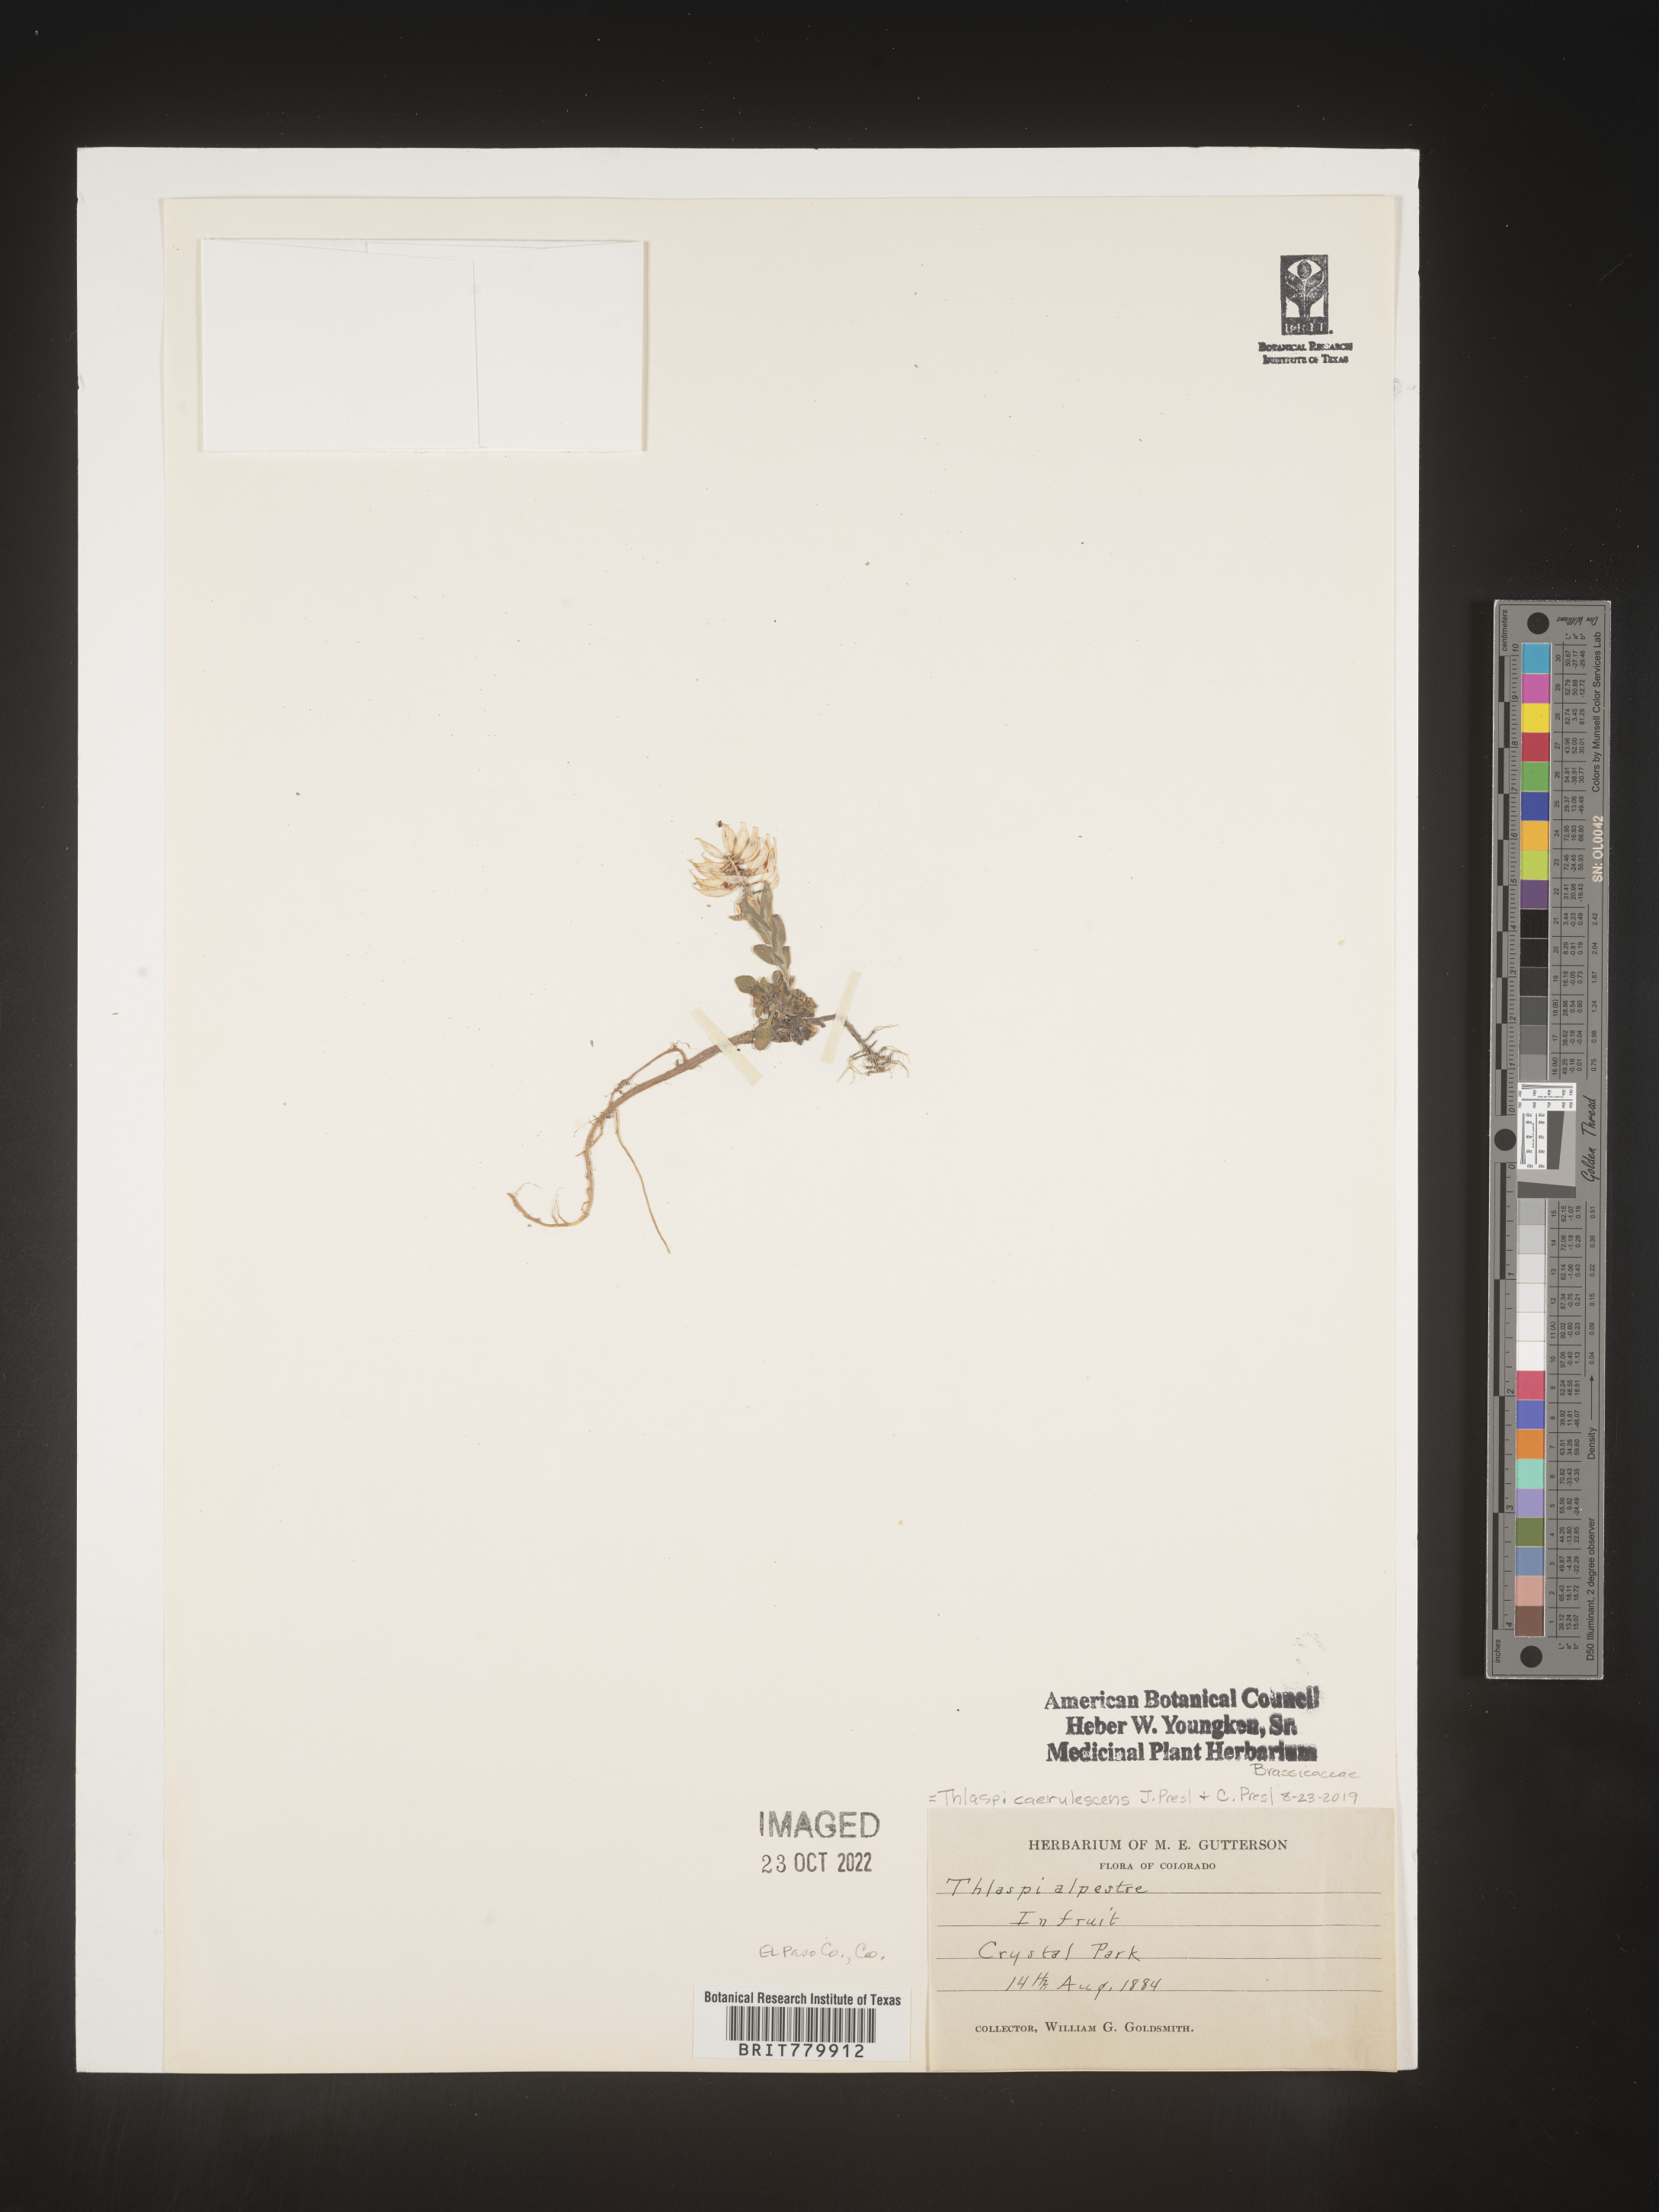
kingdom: Plantae
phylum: Tracheophyta
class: Magnoliopsida
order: Brassicales
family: Brassicaceae
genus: Thlaspi
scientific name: Thlaspi
